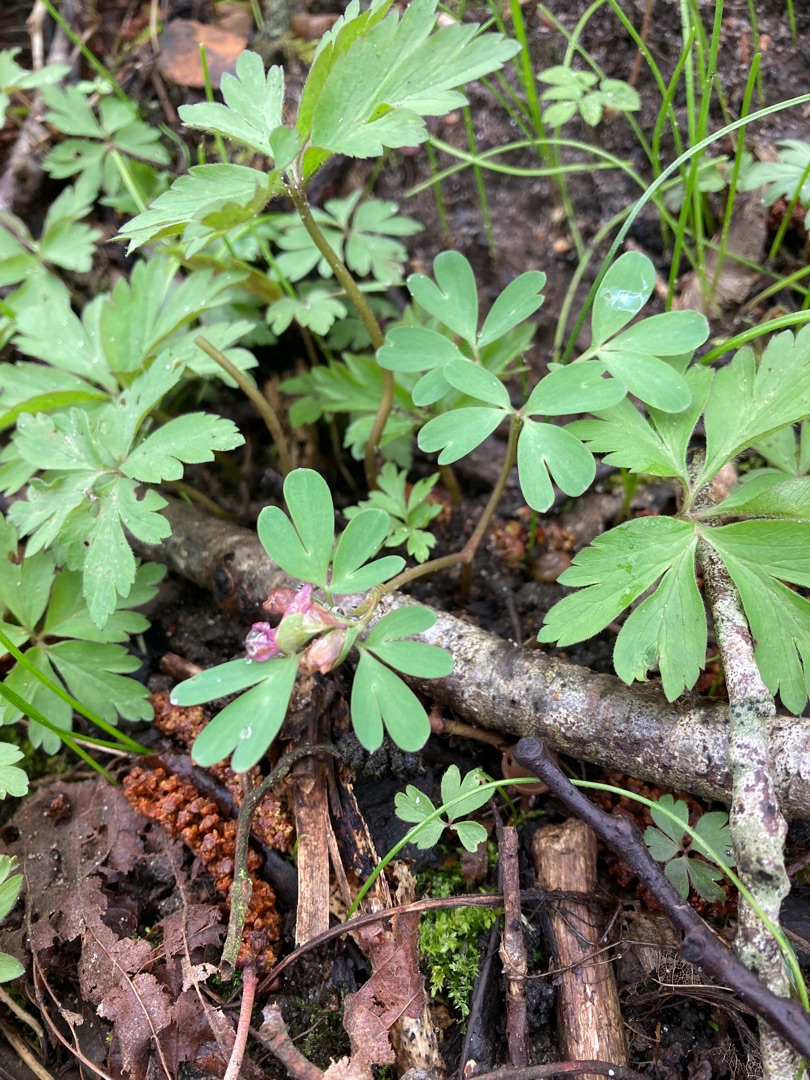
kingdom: Plantae
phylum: Tracheophyta
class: Magnoliopsida
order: Ranunculales
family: Papaveraceae
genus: Corydalis
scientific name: Corydalis intermedia
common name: Liden lærkespore
